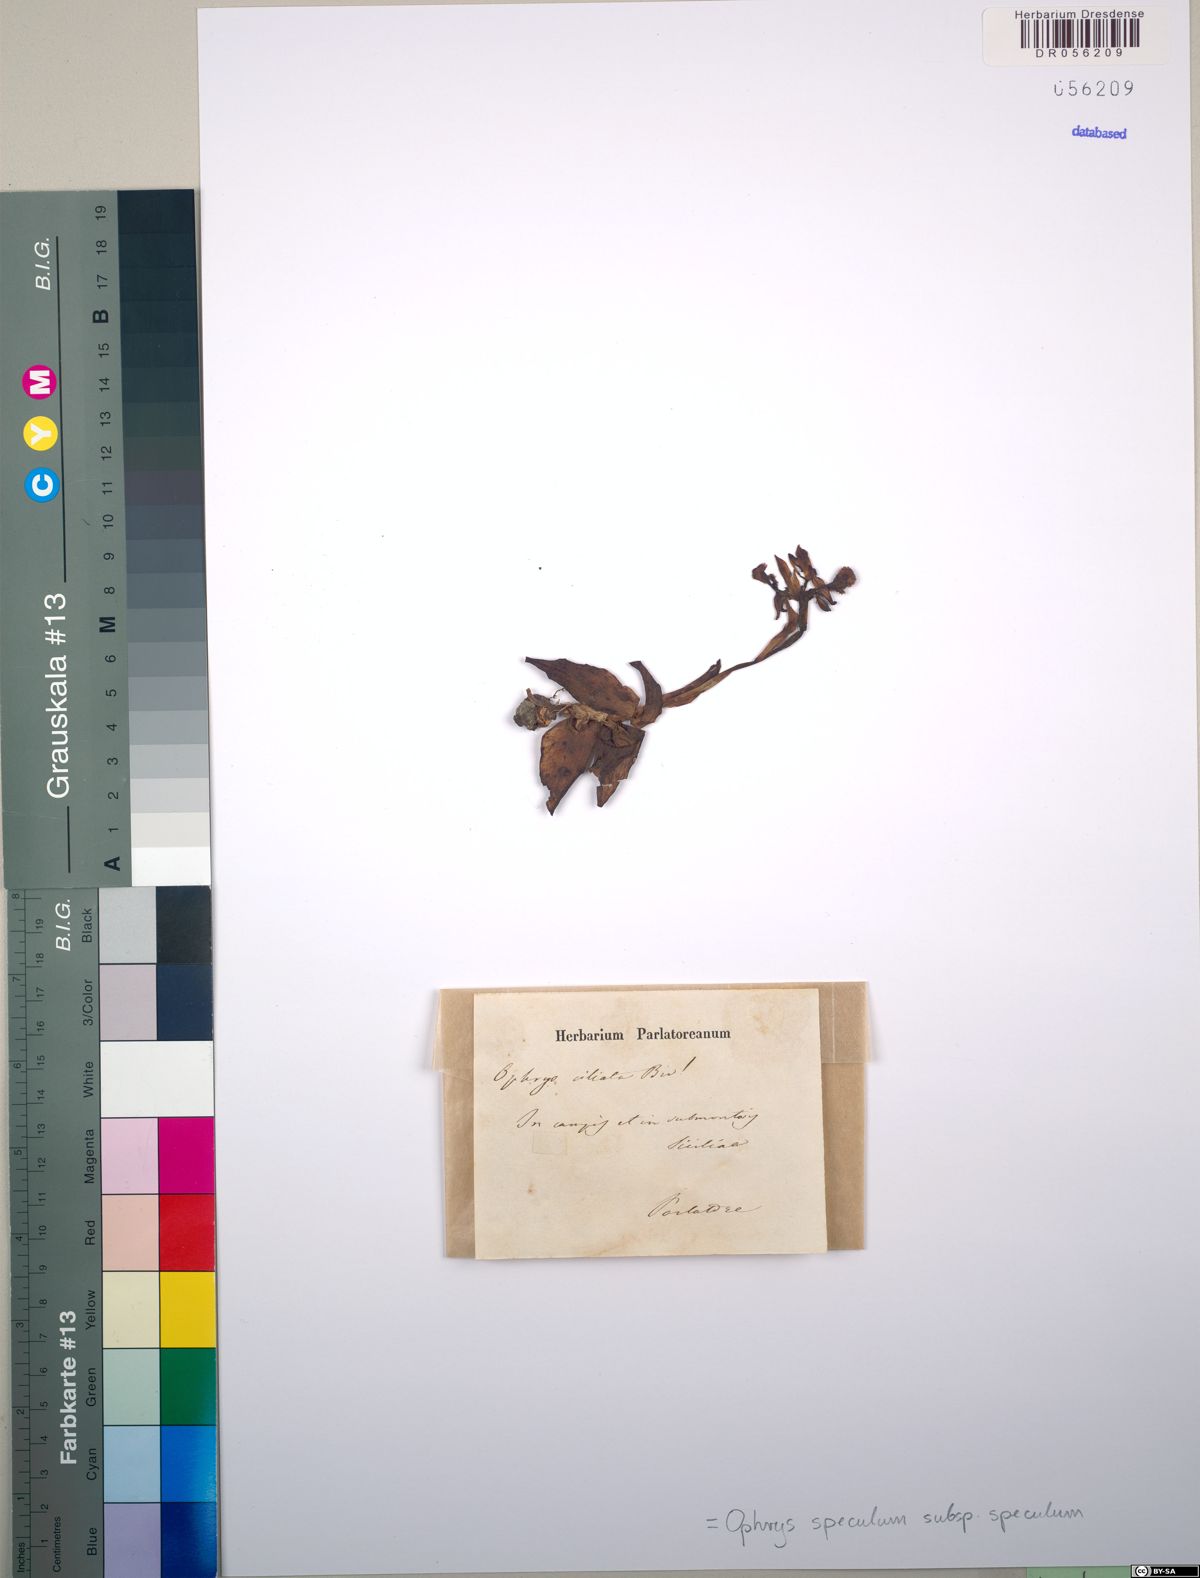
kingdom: Plantae
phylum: Tracheophyta
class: Liliopsida
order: Asparagales
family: Orchidaceae
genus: Ophrys
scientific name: Ophrys speculum
